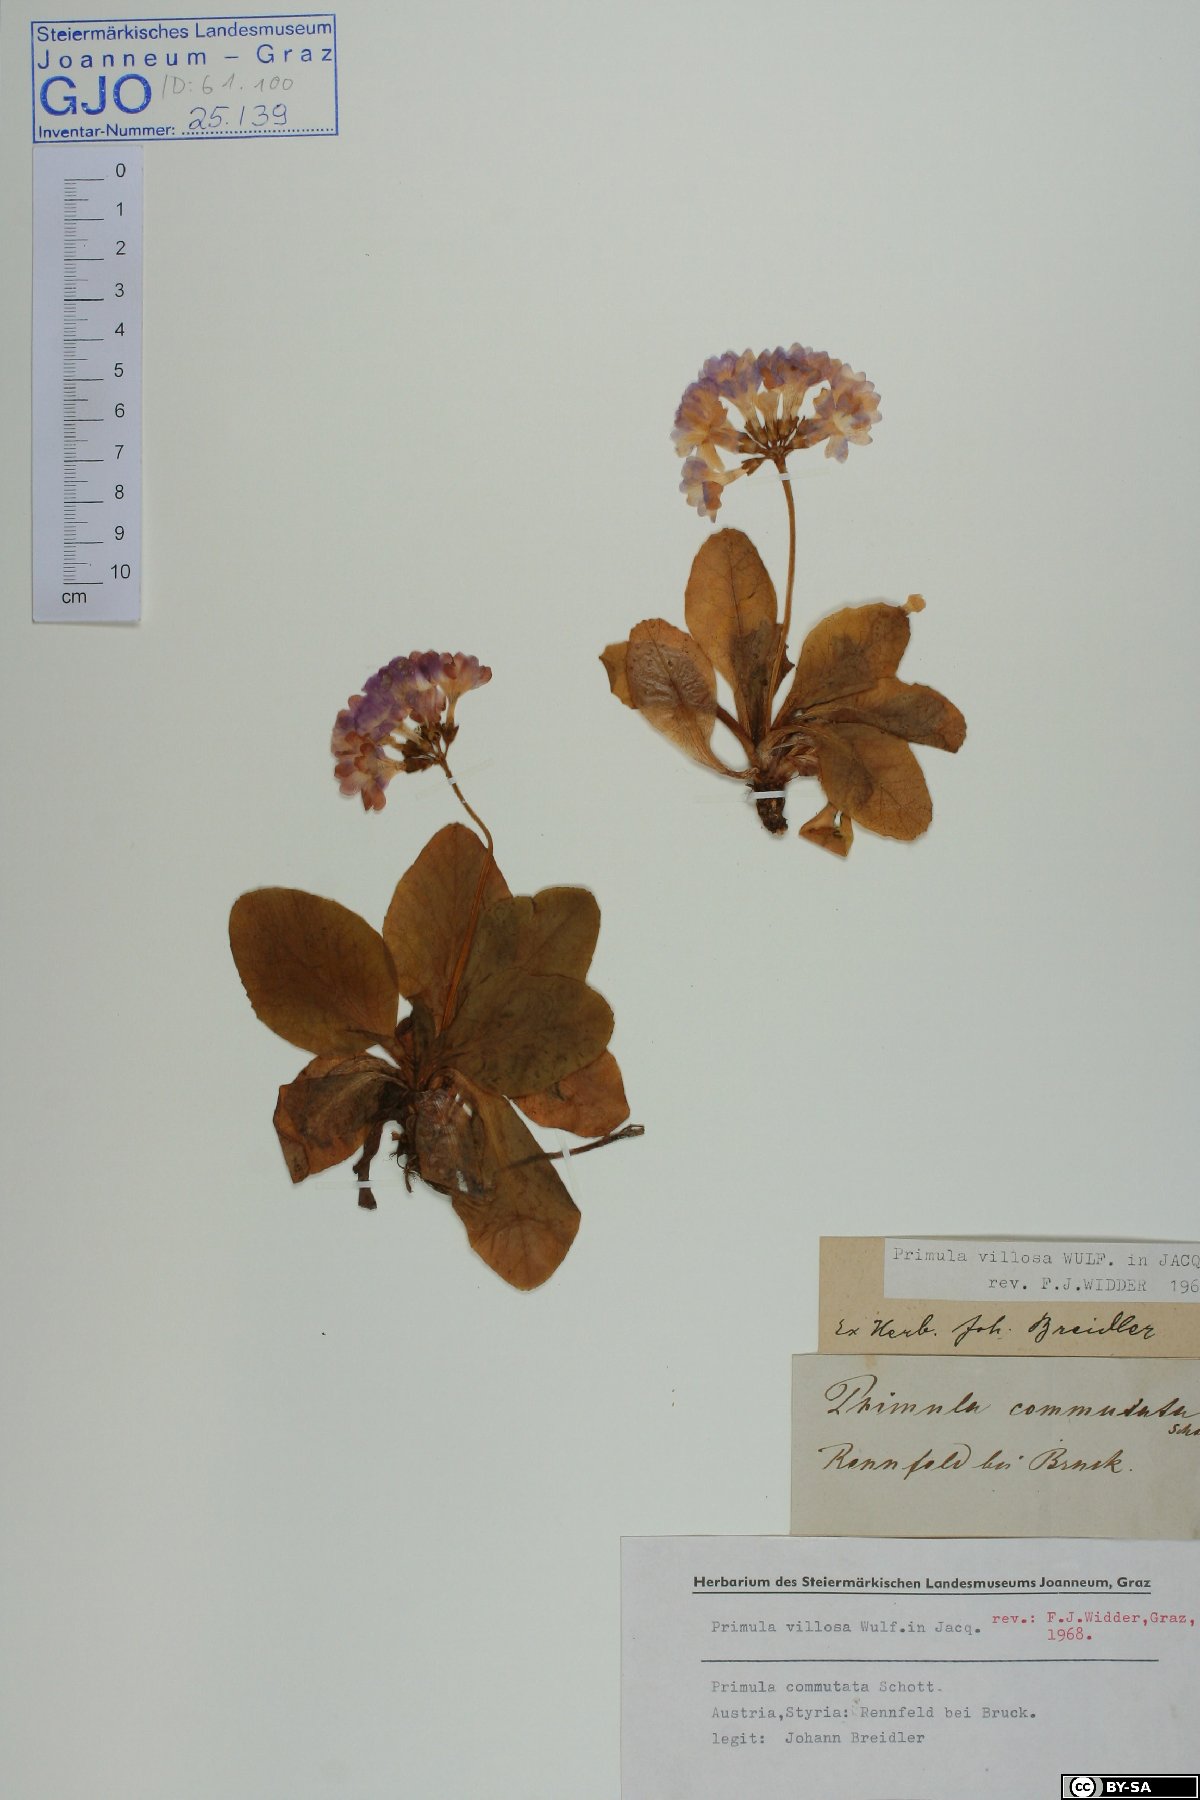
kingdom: Plantae
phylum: Tracheophyta
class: Magnoliopsida
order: Ericales
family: Primulaceae
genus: Primula
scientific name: Primula villosa
